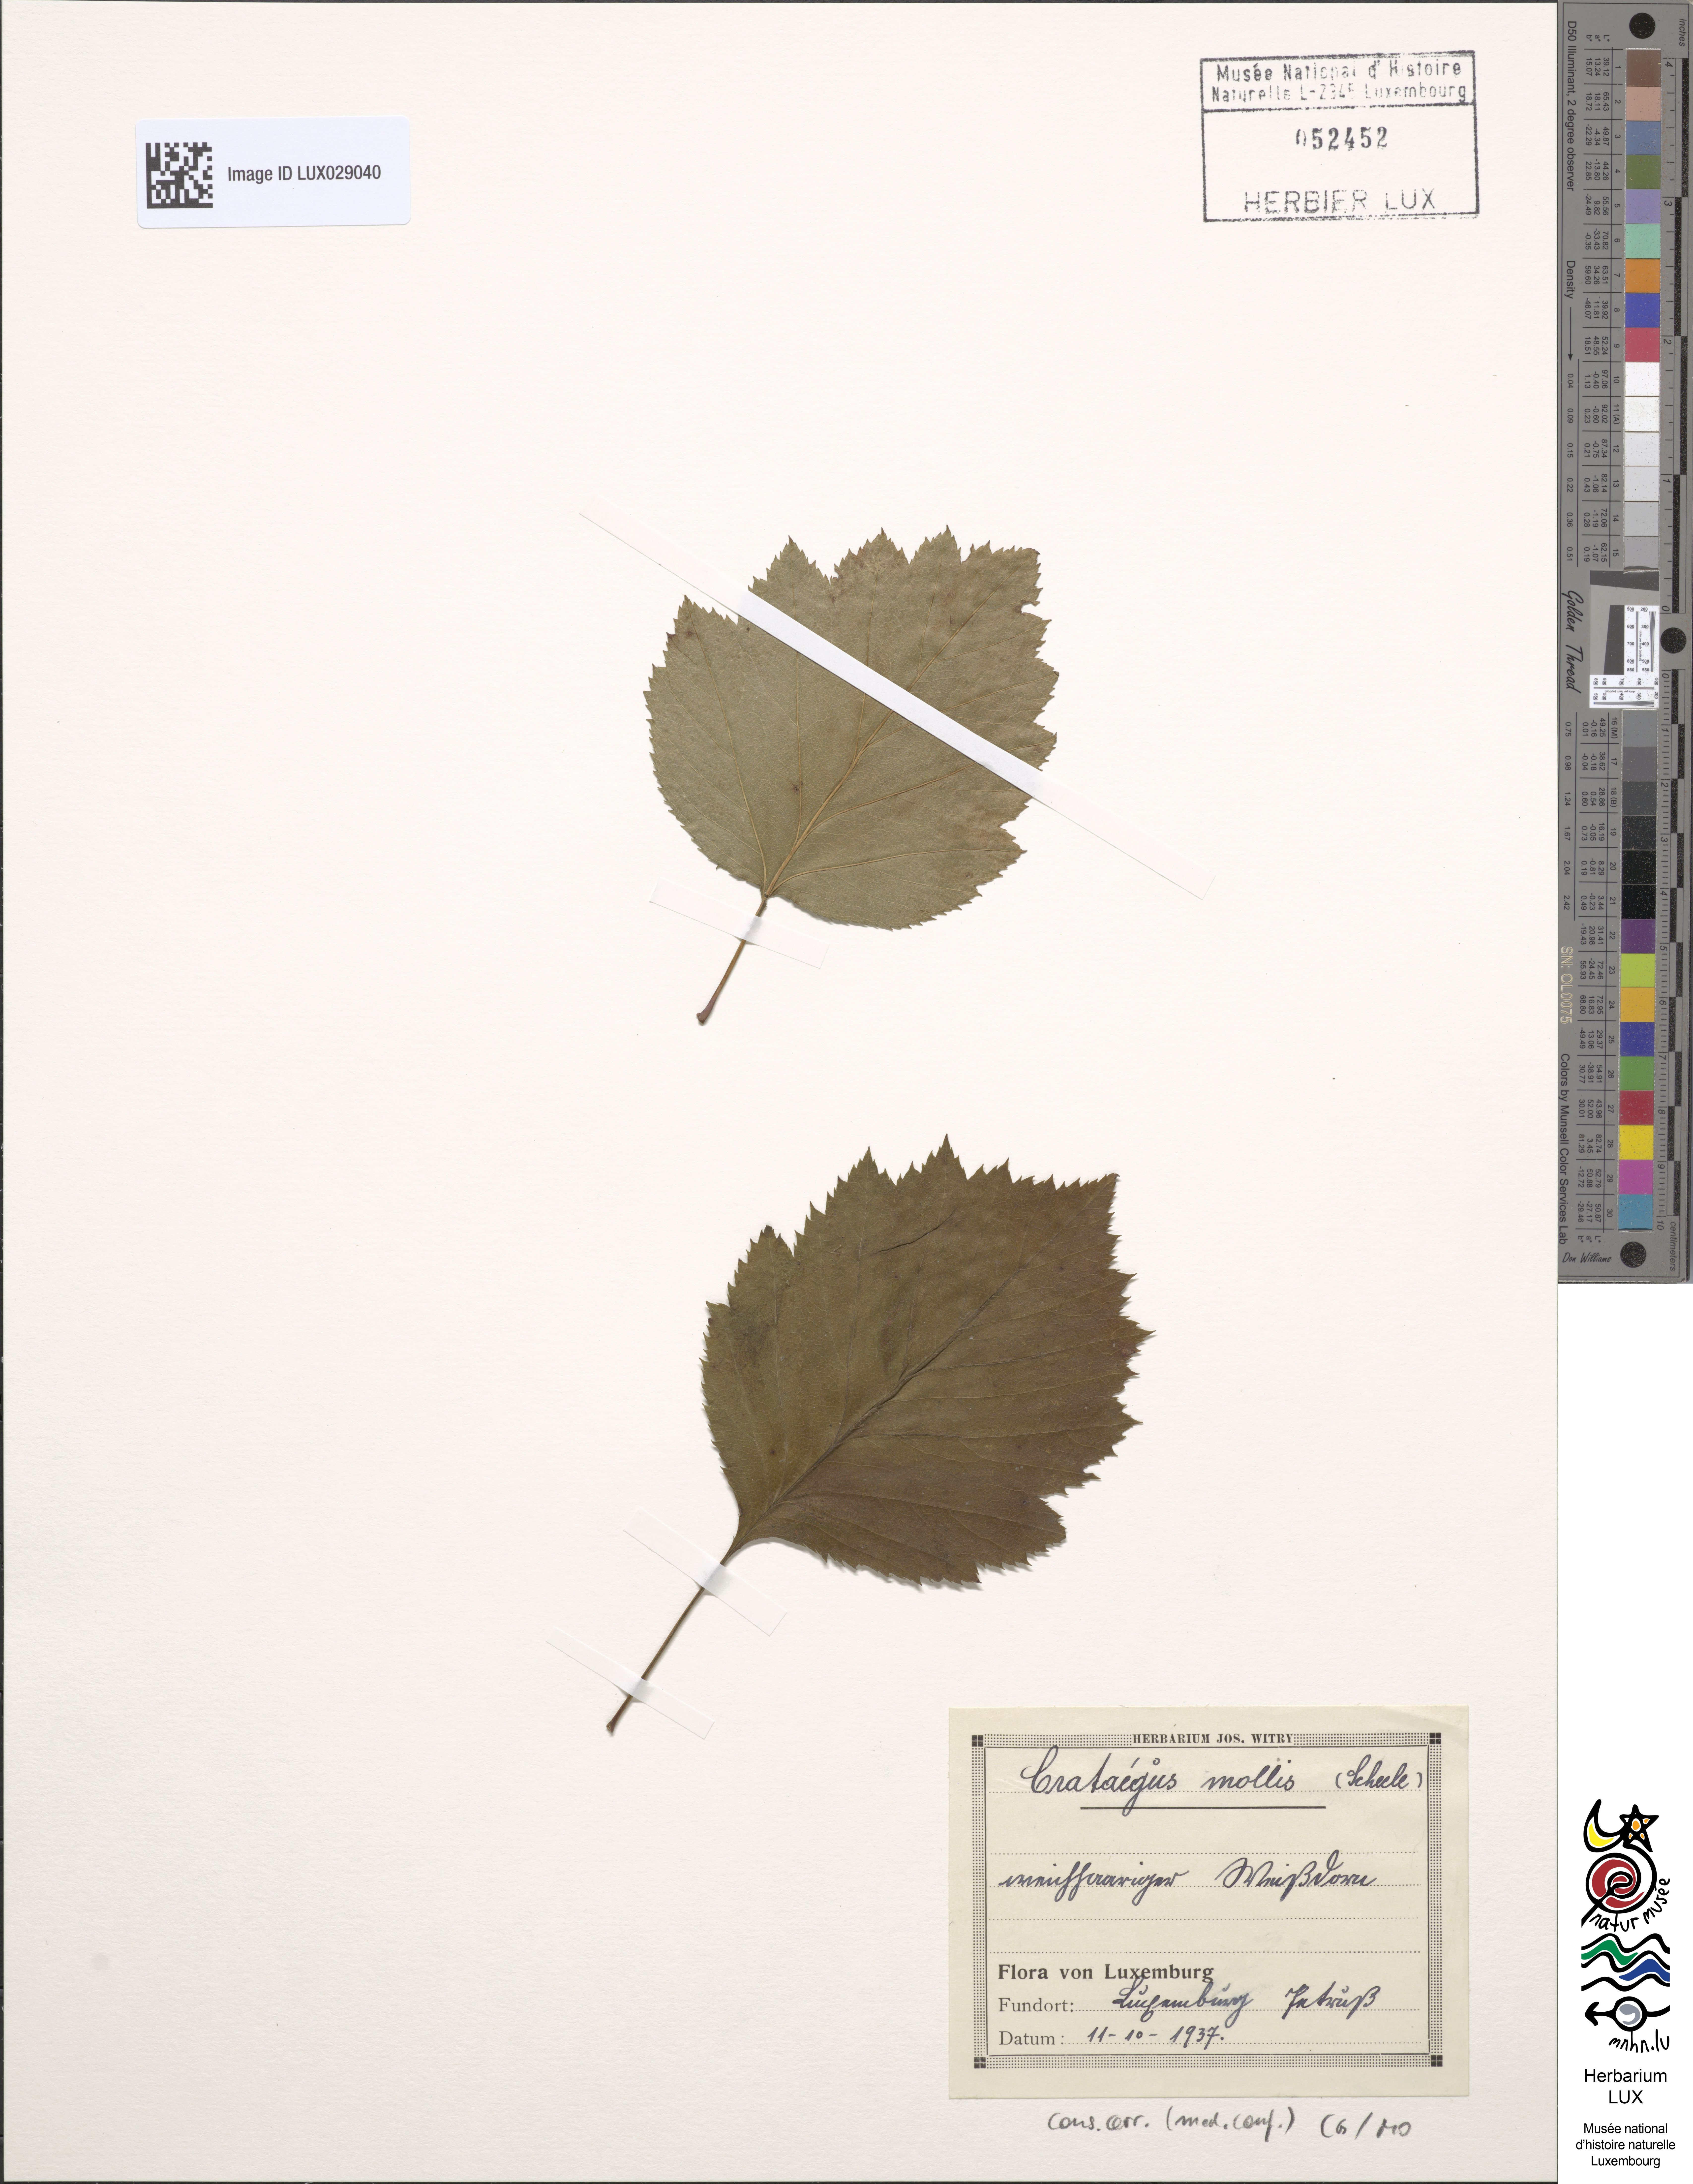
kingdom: Plantae
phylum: Tracheophyta
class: Magnoliopsida
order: Rosales
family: Rosaceae
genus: Crataegus
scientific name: Crataegus mollis
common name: Downy hawthorn
